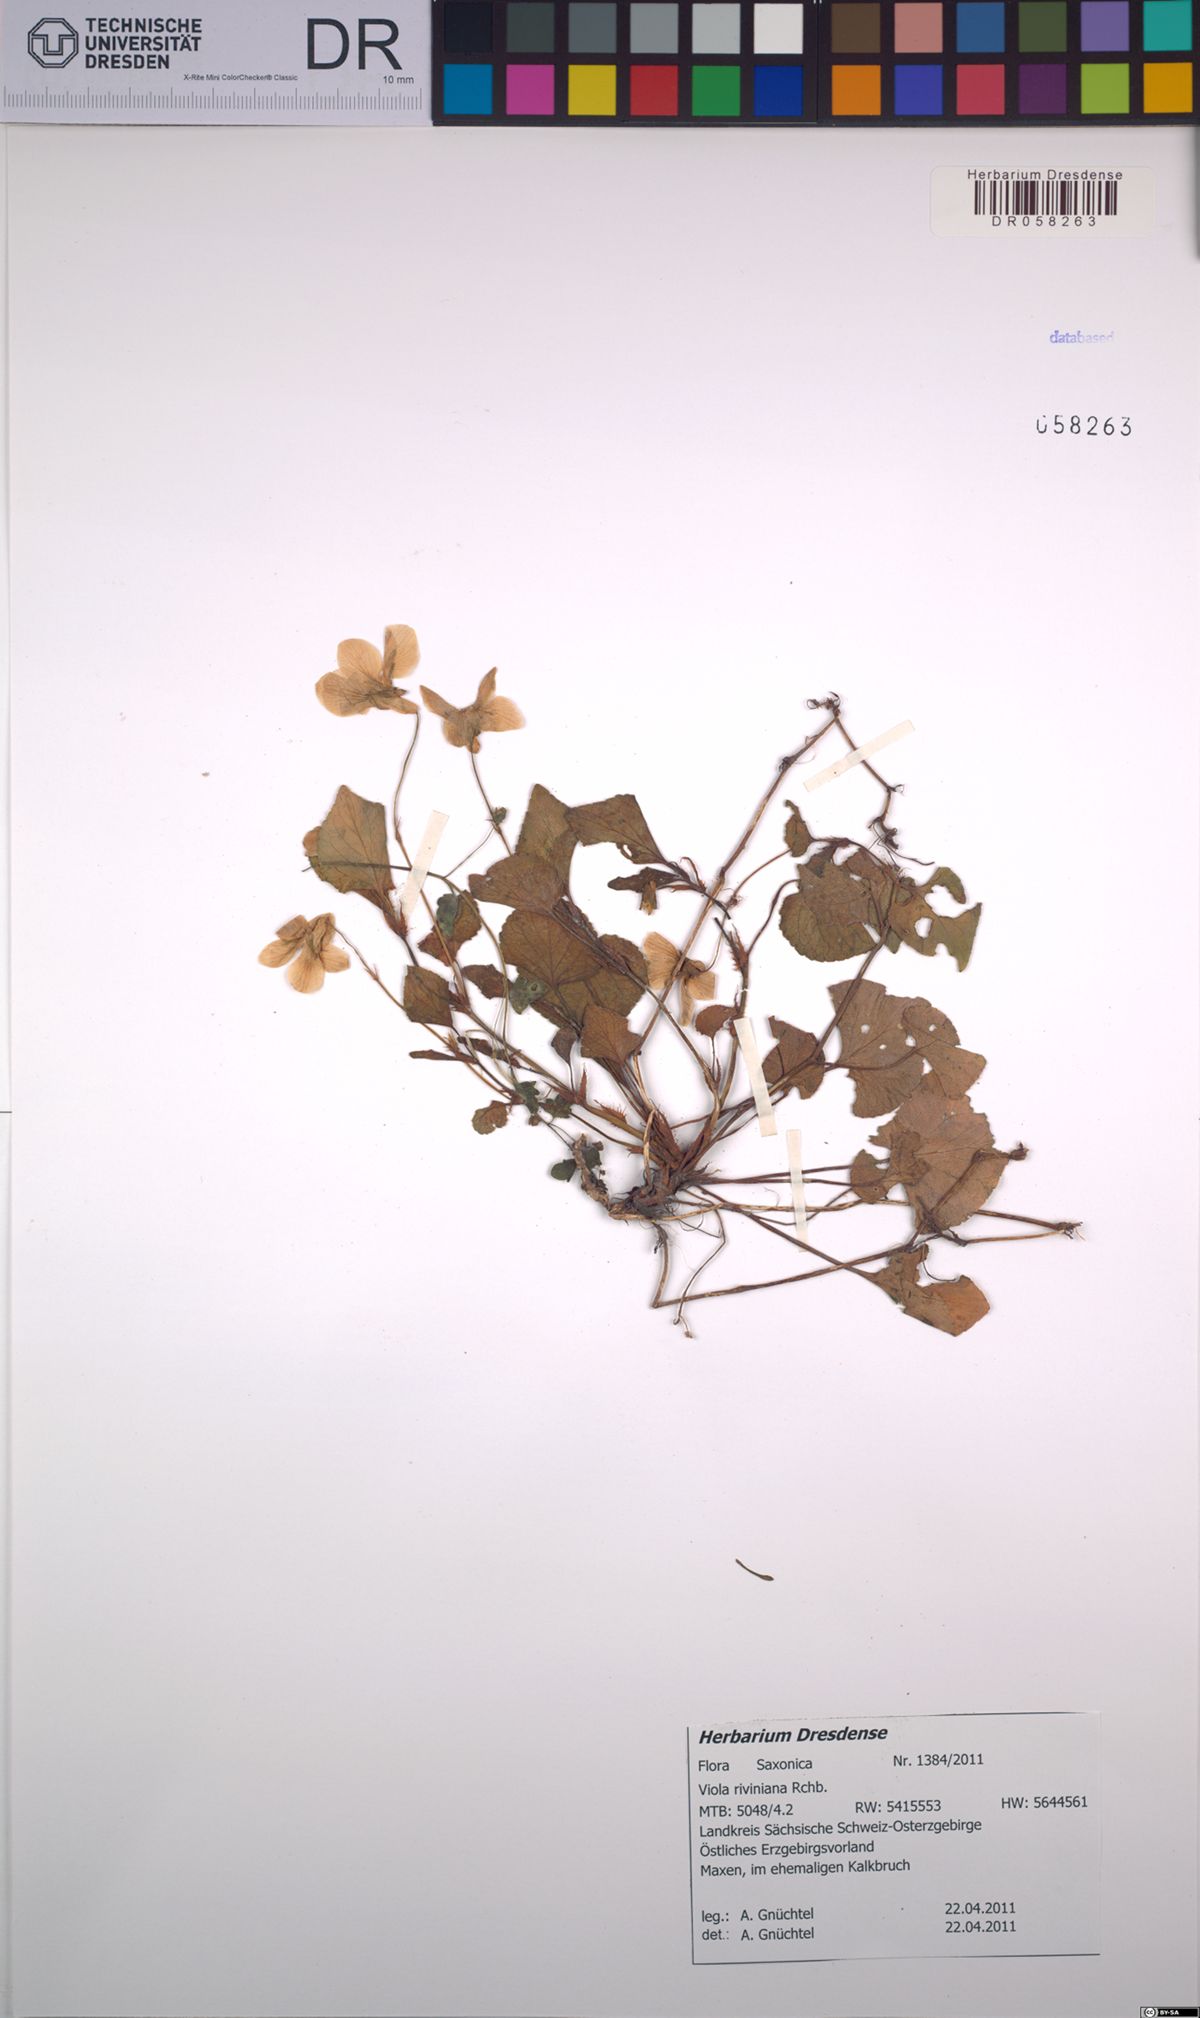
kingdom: Plantae
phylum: Tracheophyta
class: Magnoliopsida
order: Malpighiales
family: Violaceae
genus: Viola
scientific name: Viola riviniana
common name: Common dog-violet
